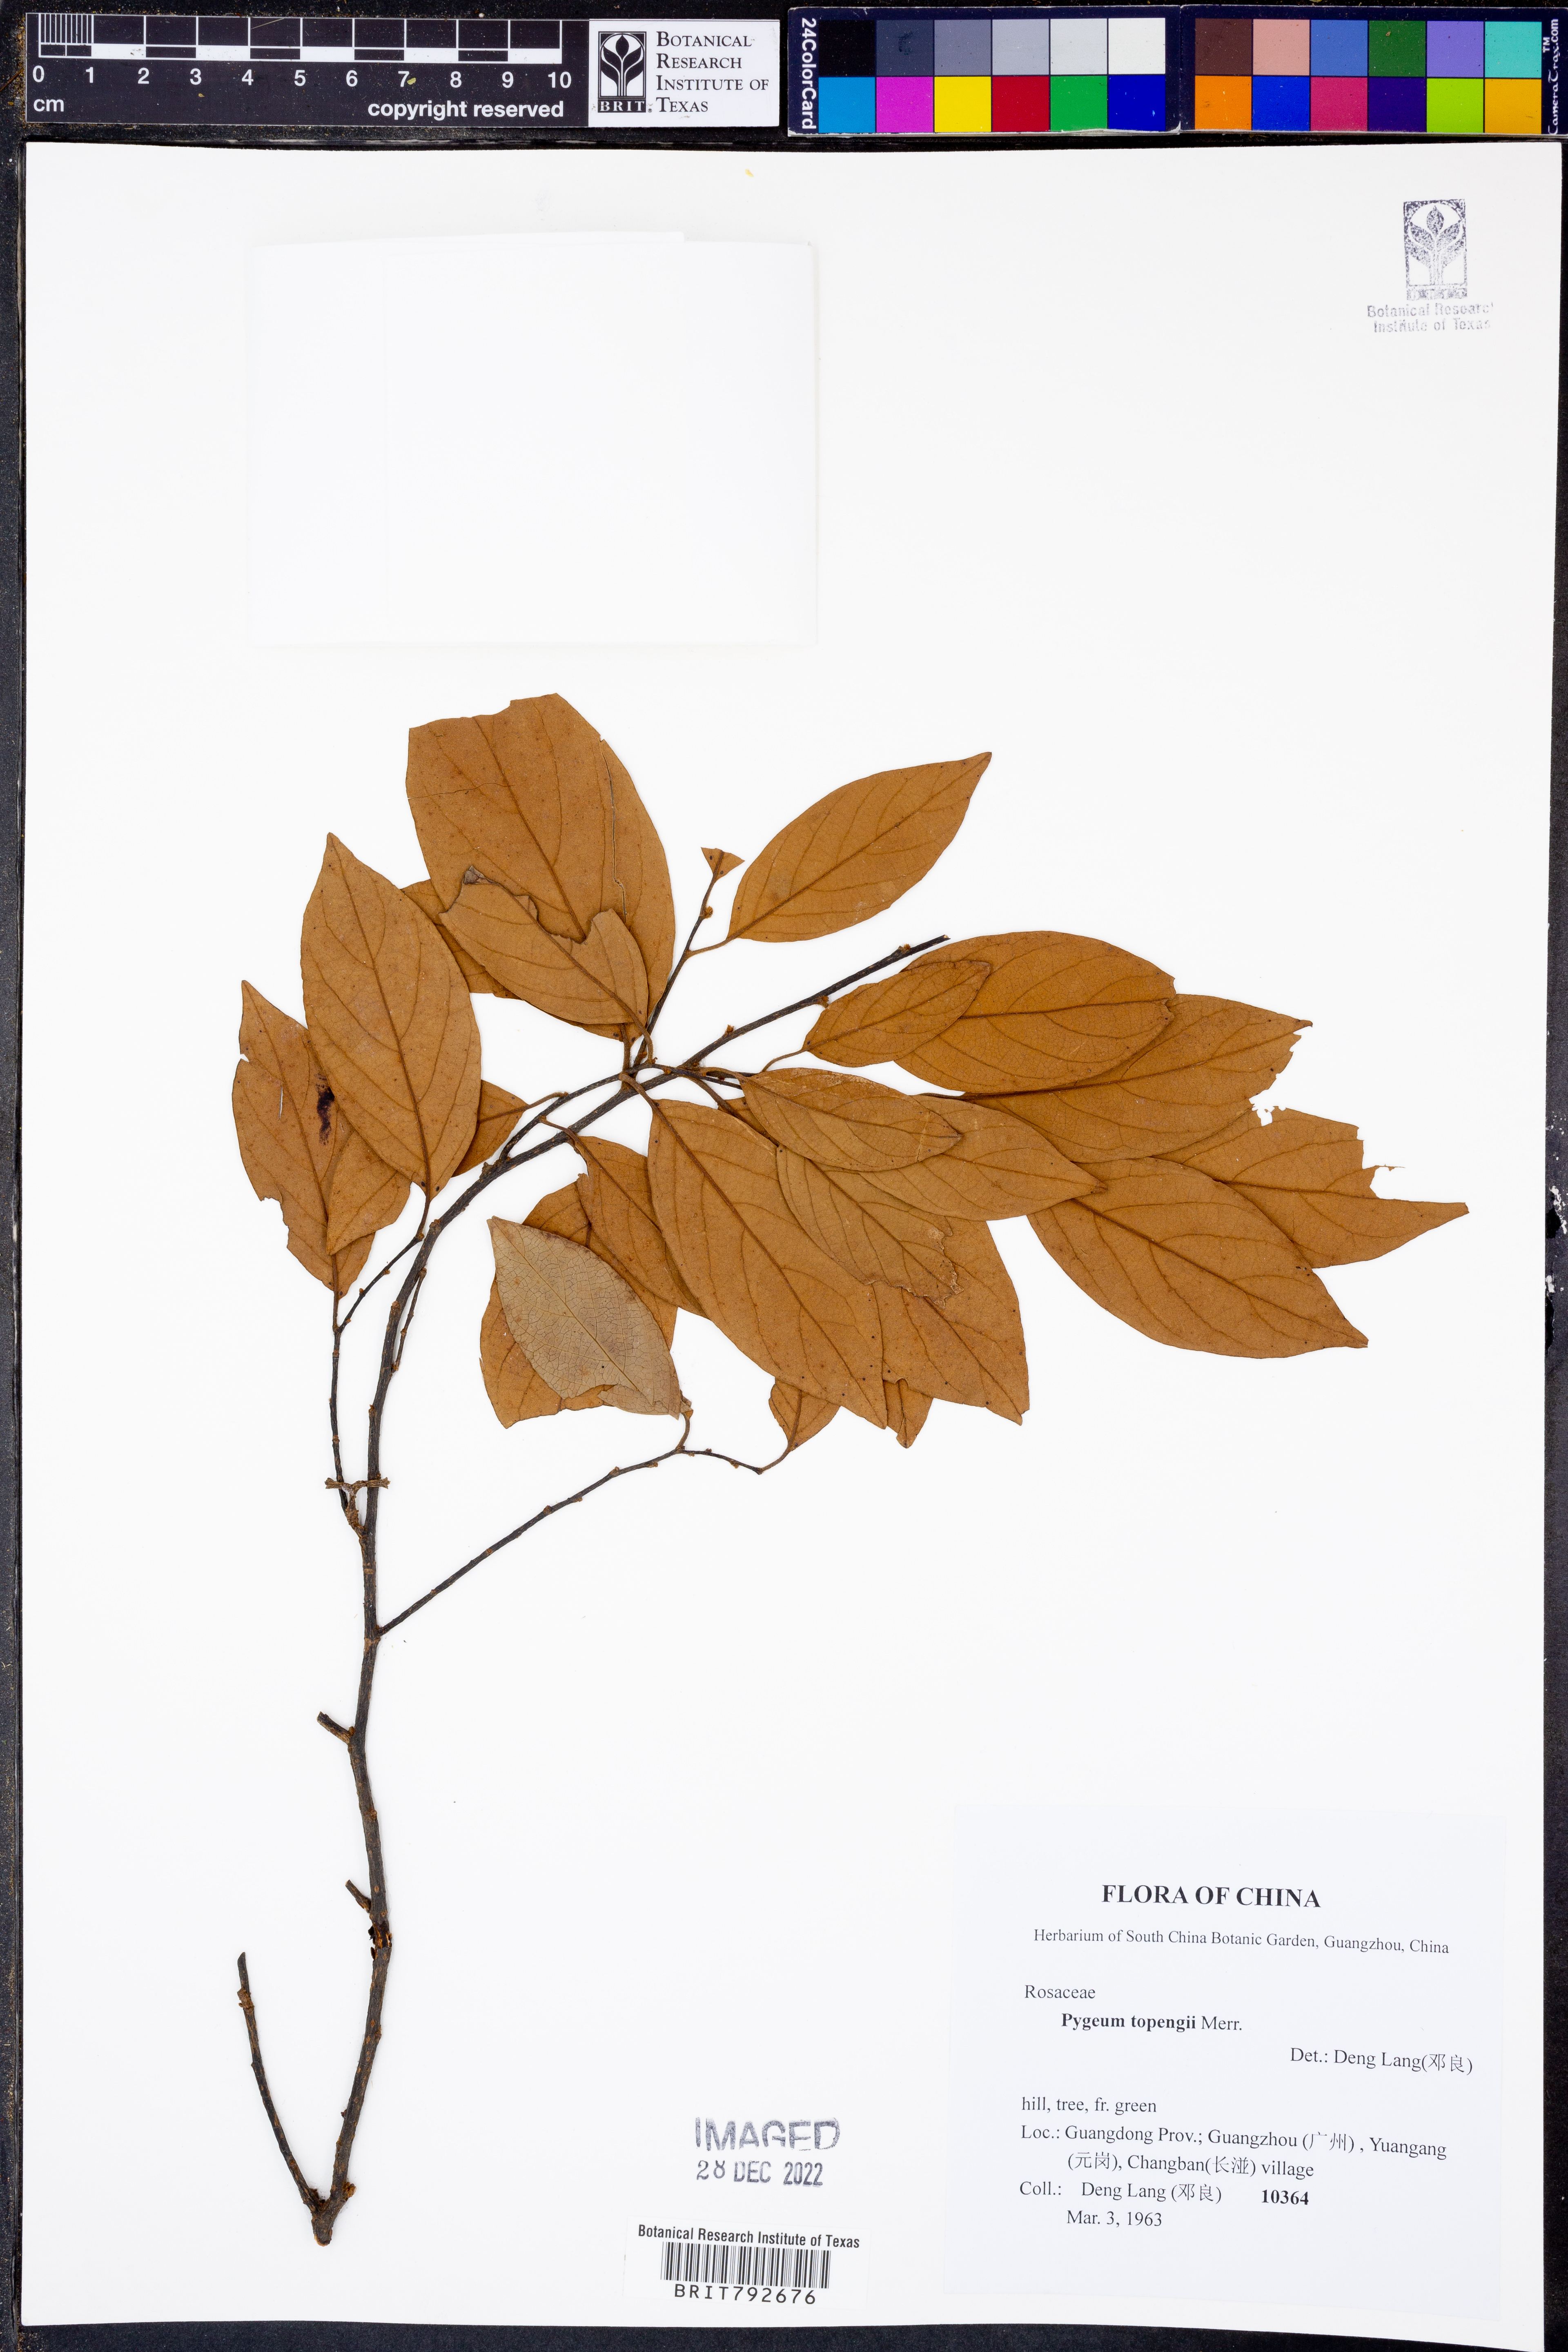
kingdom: Plantae
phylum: Tracheophyta
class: Magnoliopsida
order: Rosales
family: Rosaceae
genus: Prunus
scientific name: Prunus arborea
